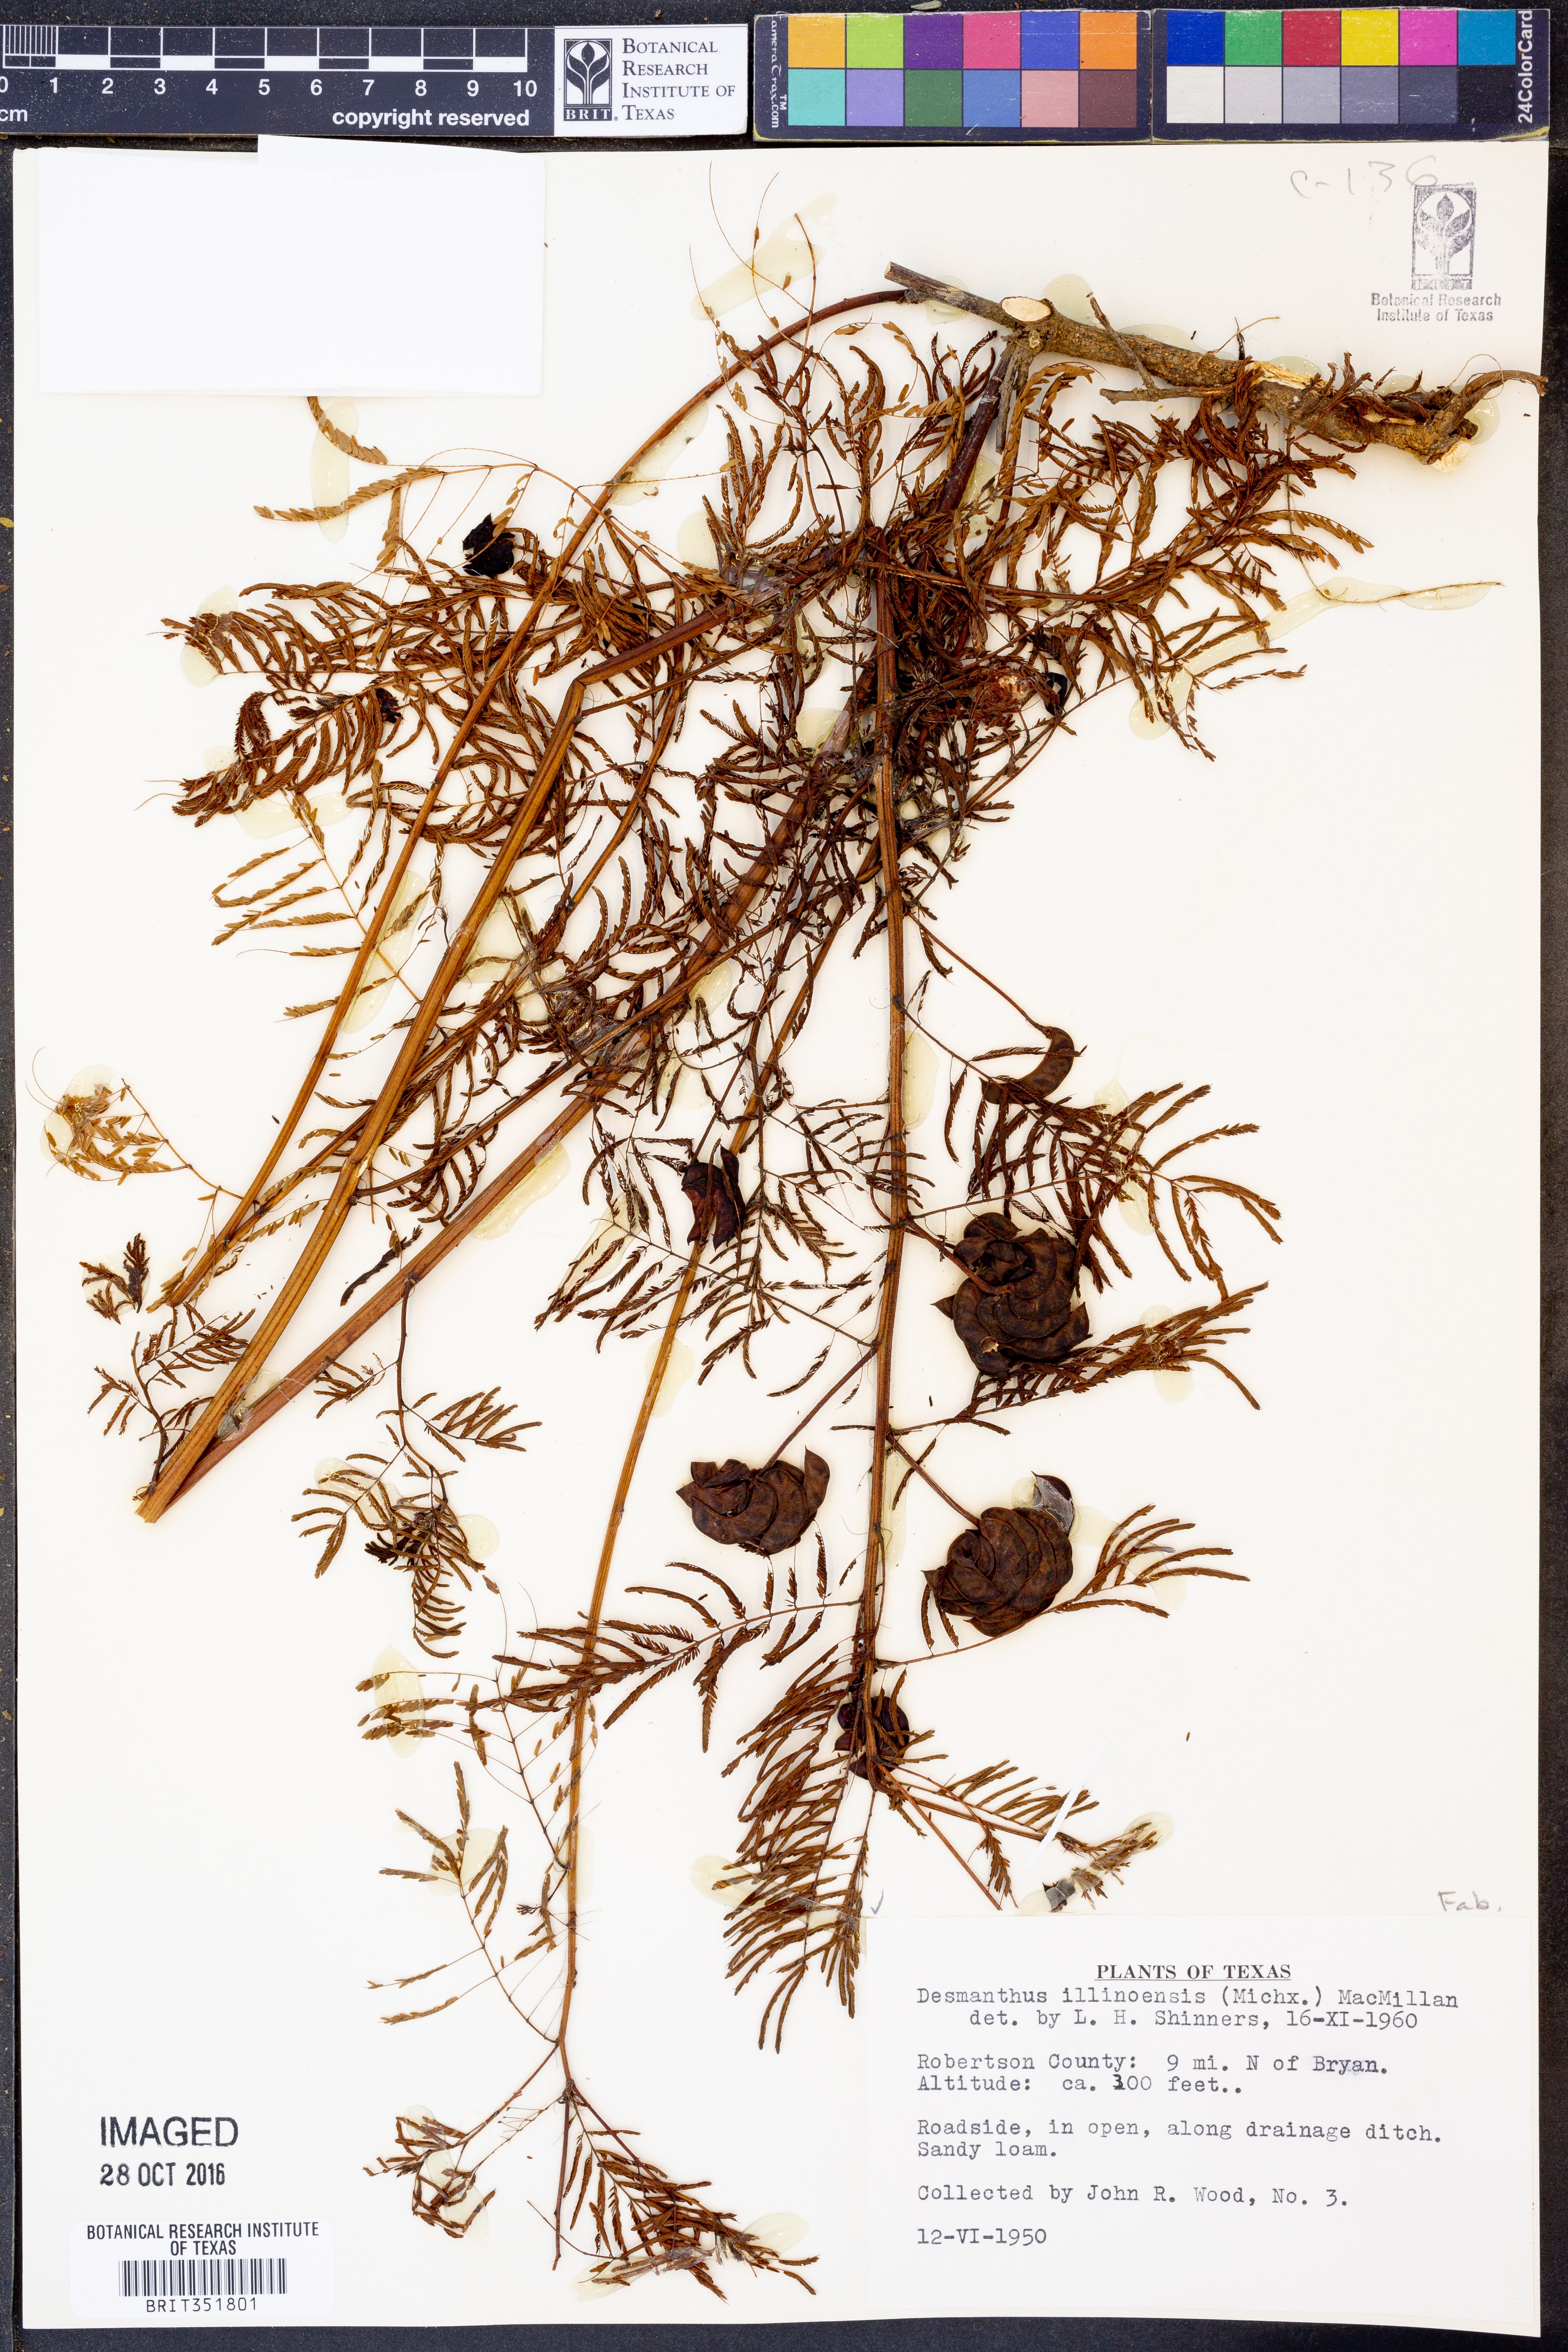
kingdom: Plantae
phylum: Tracheophyta
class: Magnoliopsida
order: Fabales
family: Fabaceae
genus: Desmanthus
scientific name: Desmanthus illinoensis
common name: Illinois bundle-flower
